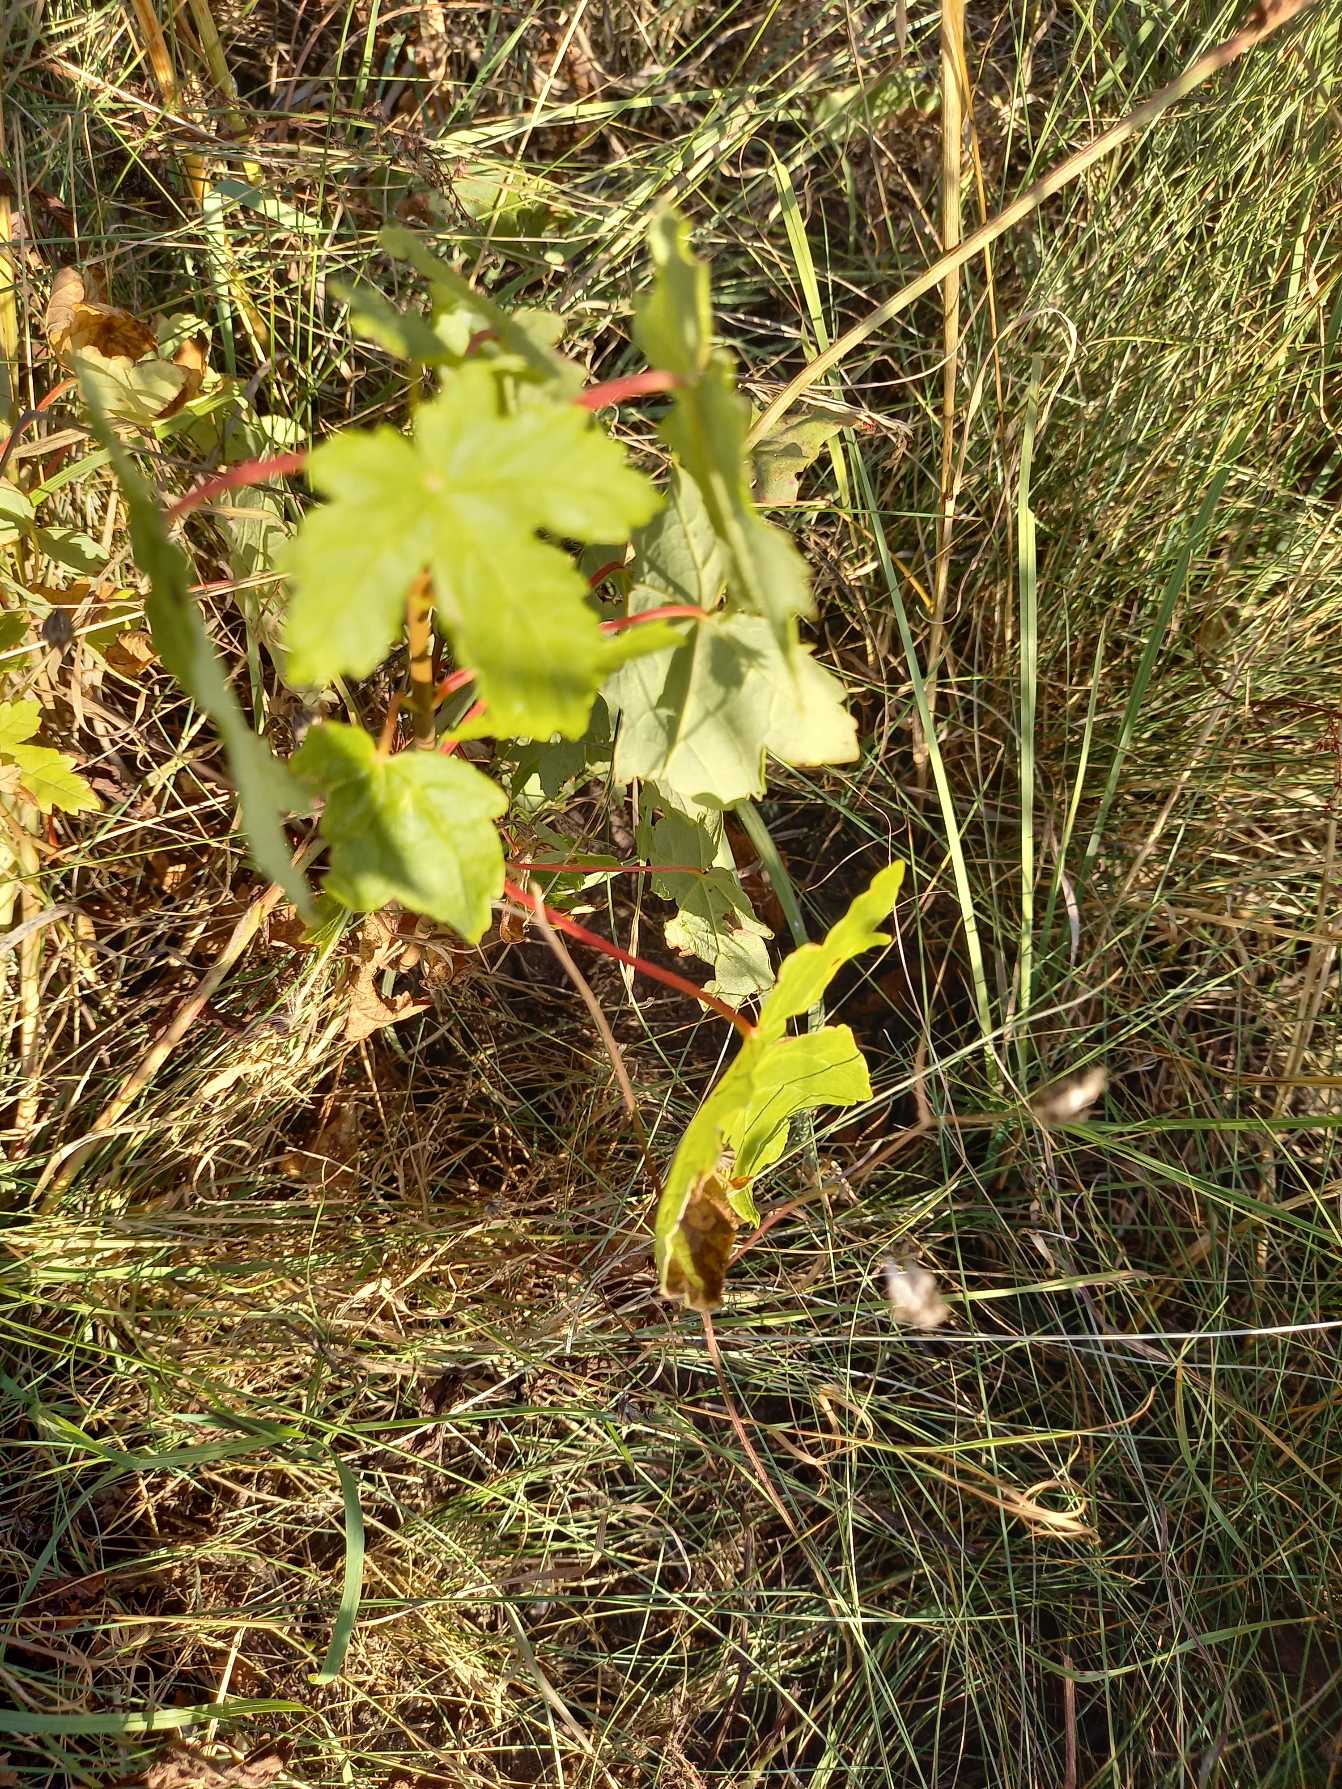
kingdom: Plantae
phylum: Tracheophyta
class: Magnoliopsida
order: Sapindales
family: Sapindaceae
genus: Acer
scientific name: Acer pseudoplatanus
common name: Ahorn
